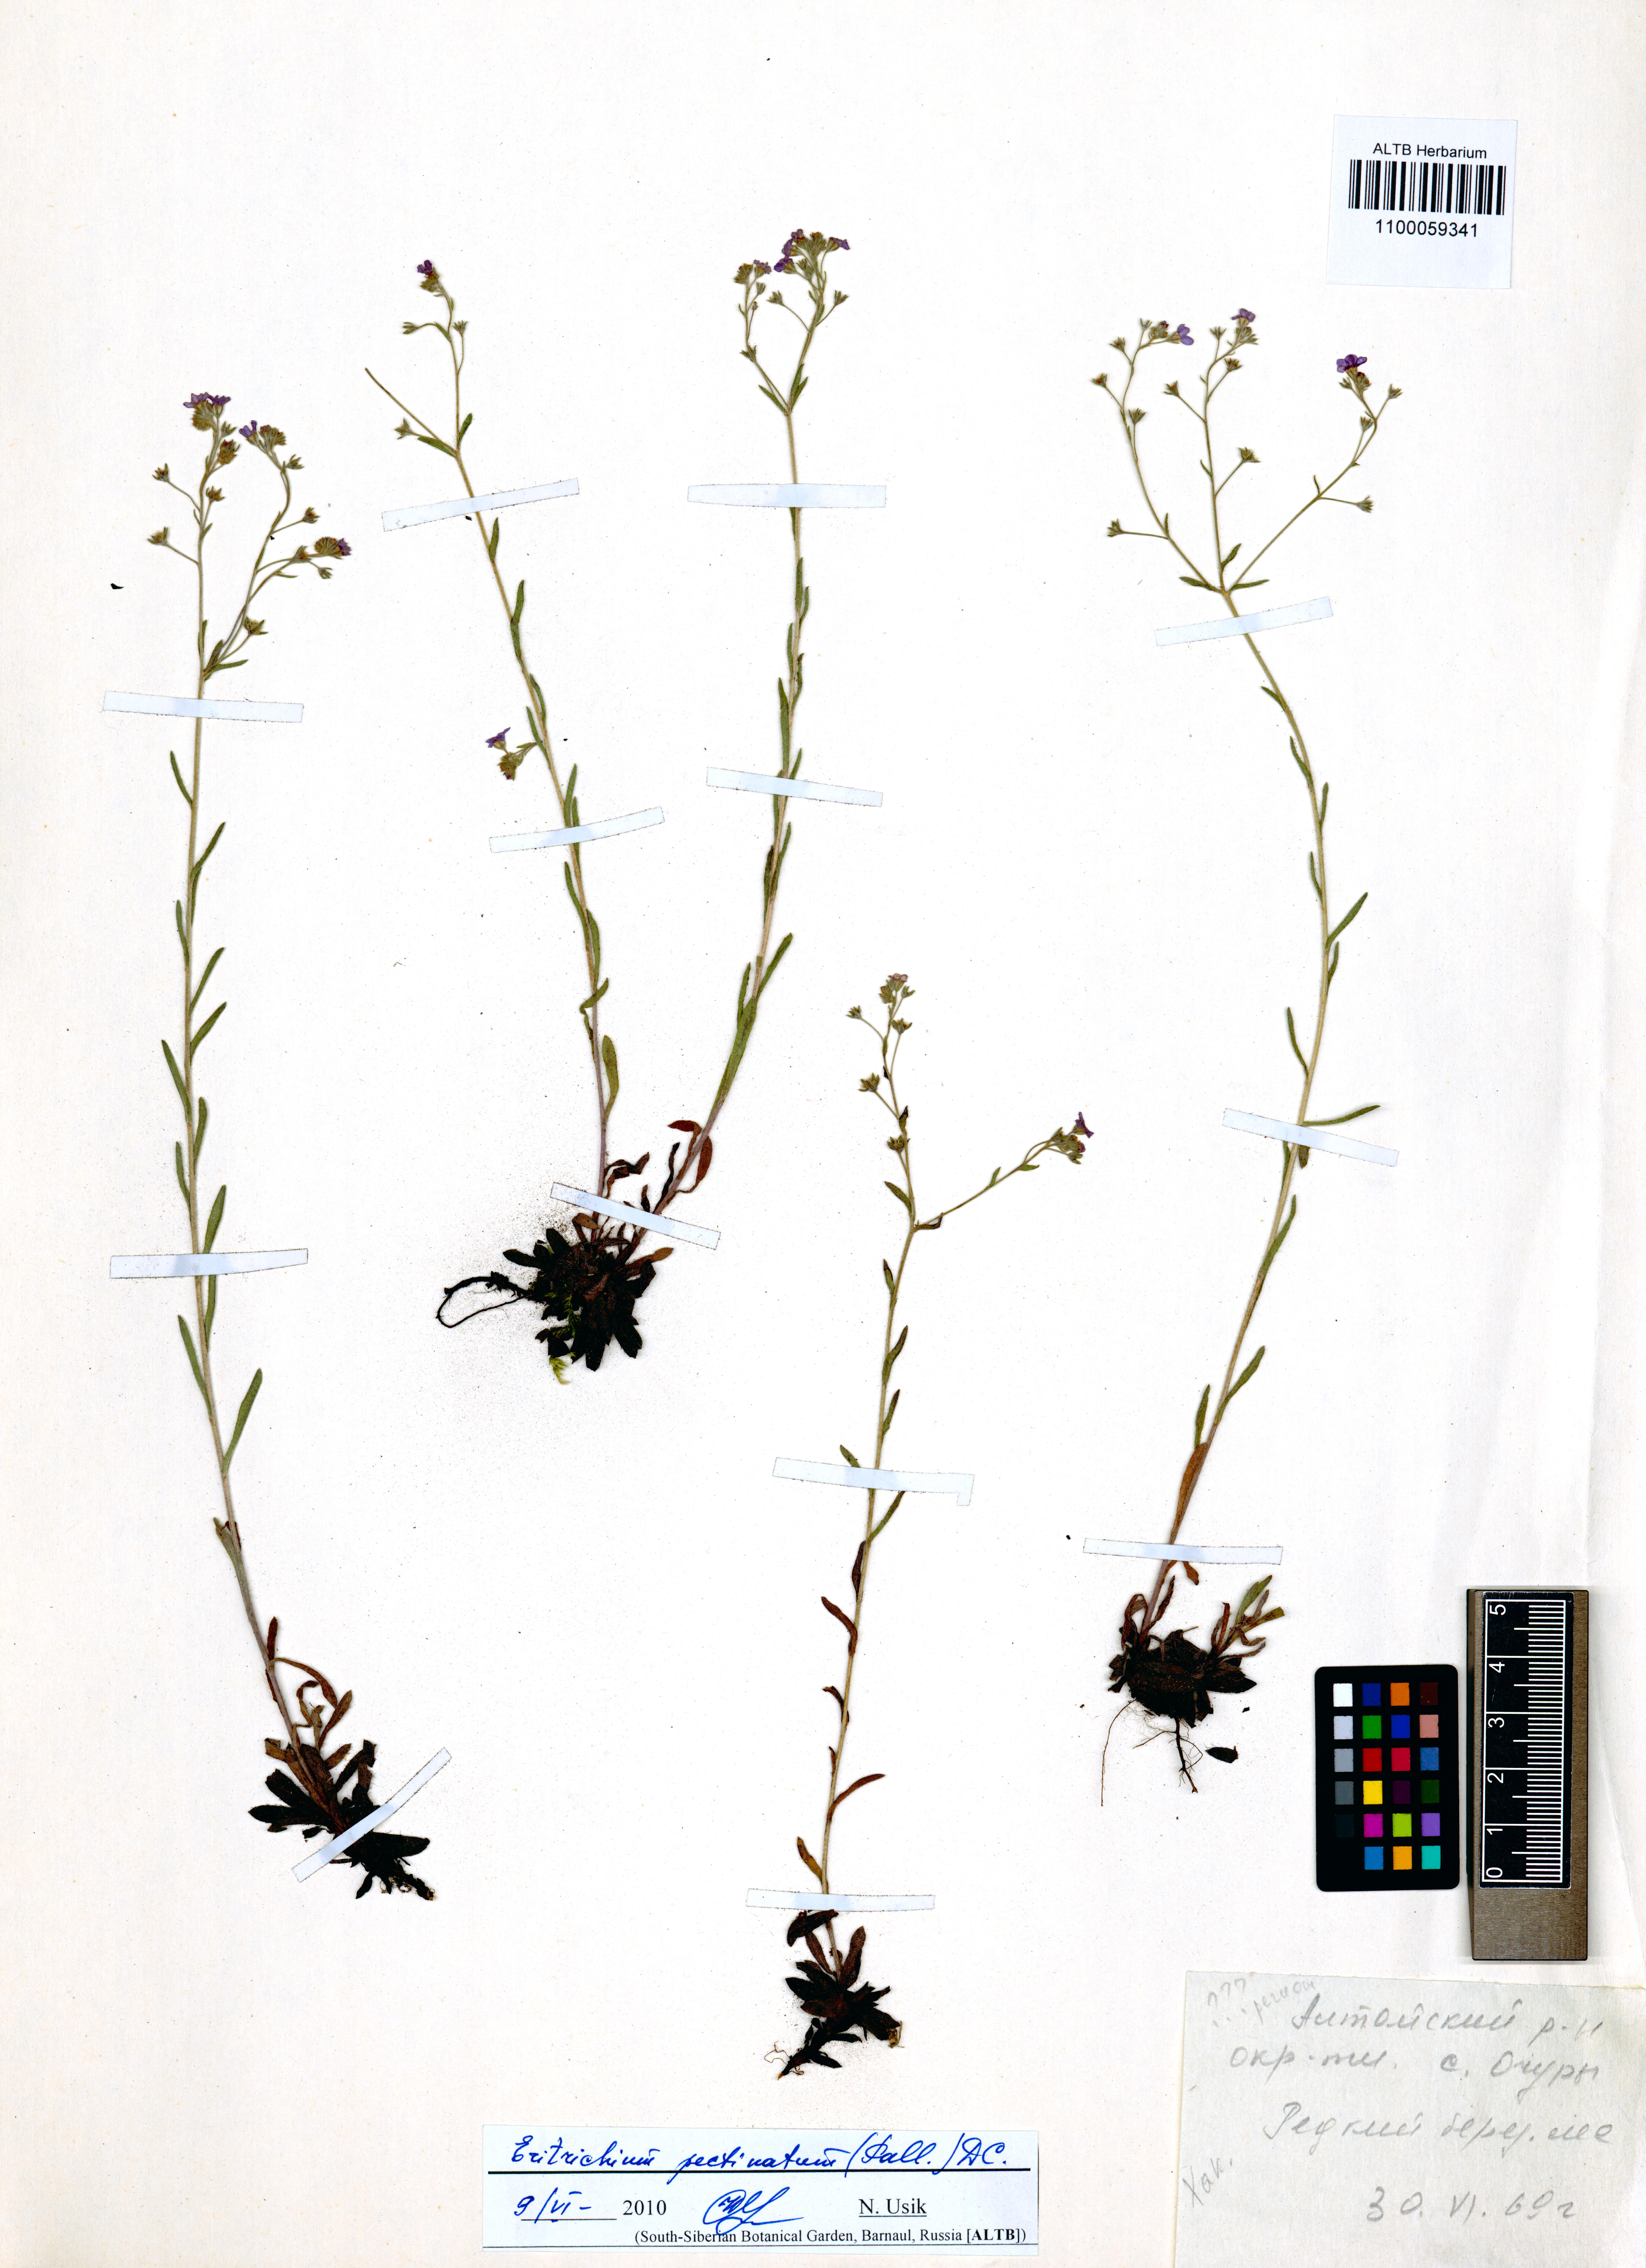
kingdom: Plantae
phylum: Tracheophyta
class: Magnoliopsida
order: Boraginales
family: Boraginaceae
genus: Eritrichium
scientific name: Eritrichium pectinatum
